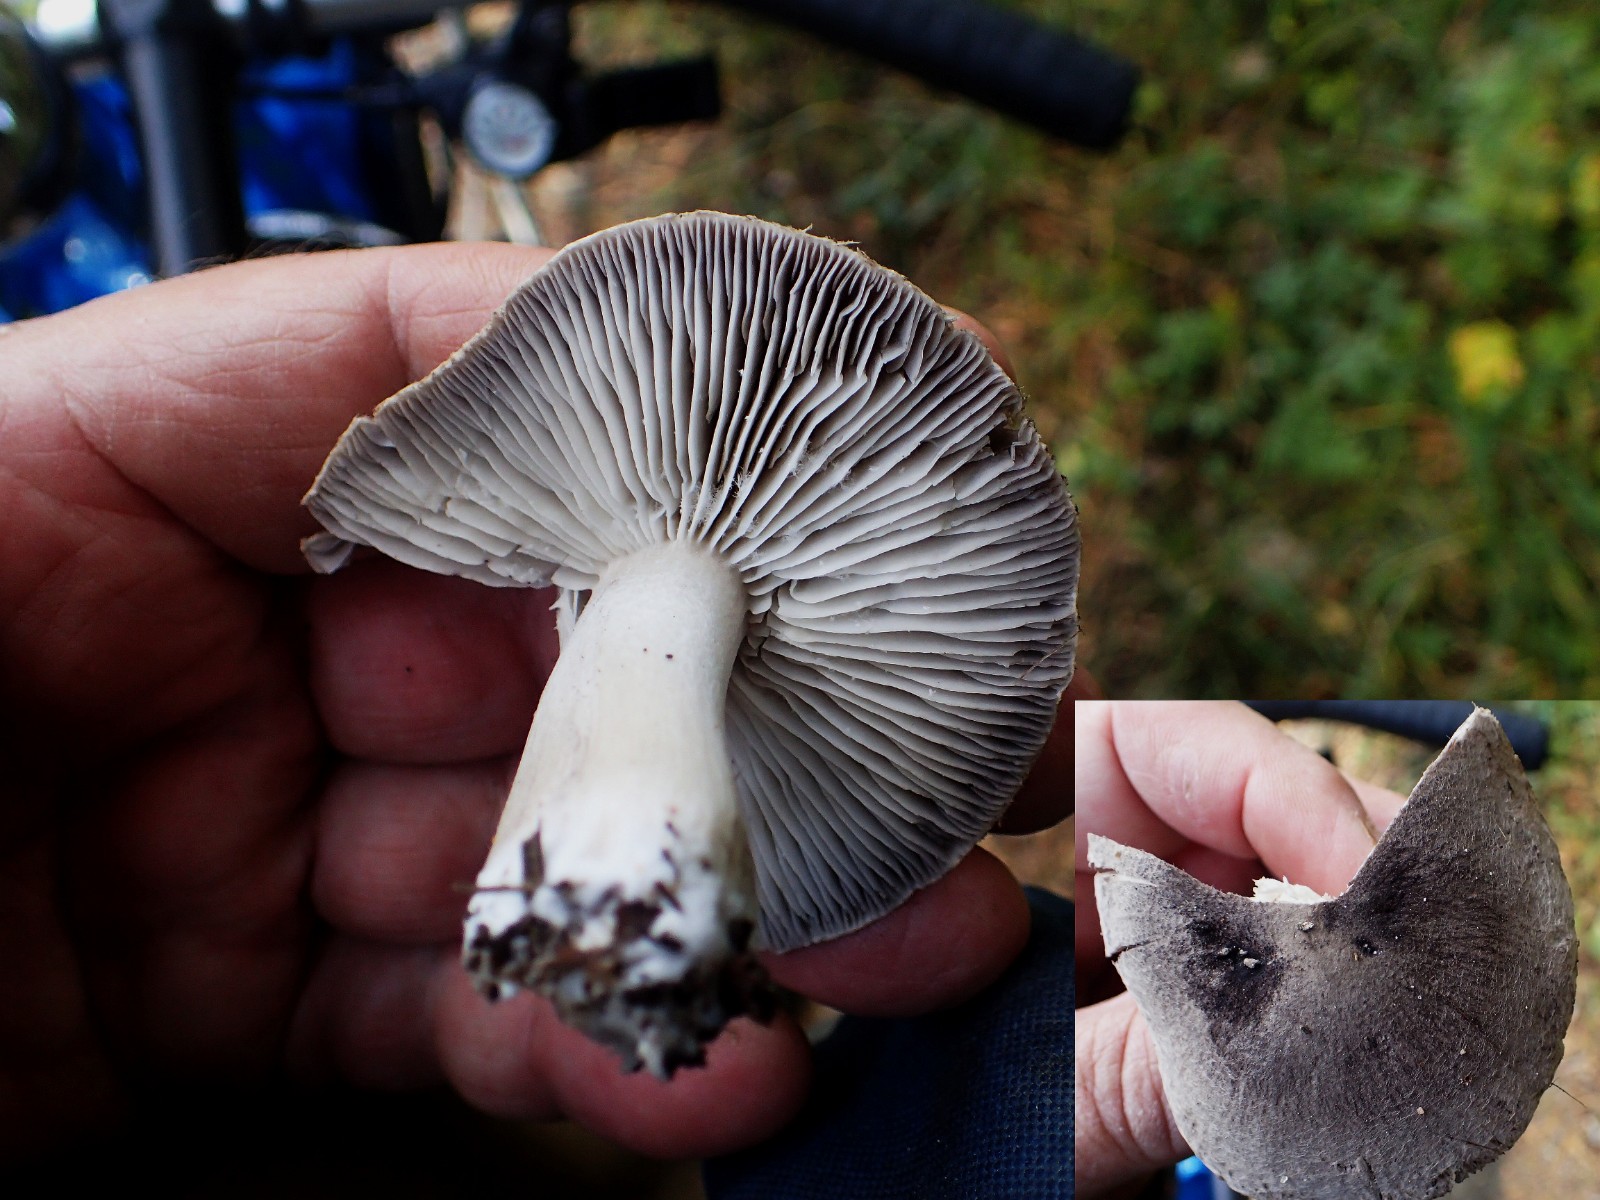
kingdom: Fungi
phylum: Basidiomycota
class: Agaricomycetes
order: Agaricales
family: Tricholomataceae
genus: Tricholoma
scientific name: Tricholoma terreum
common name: jordfarvet ridderhat
